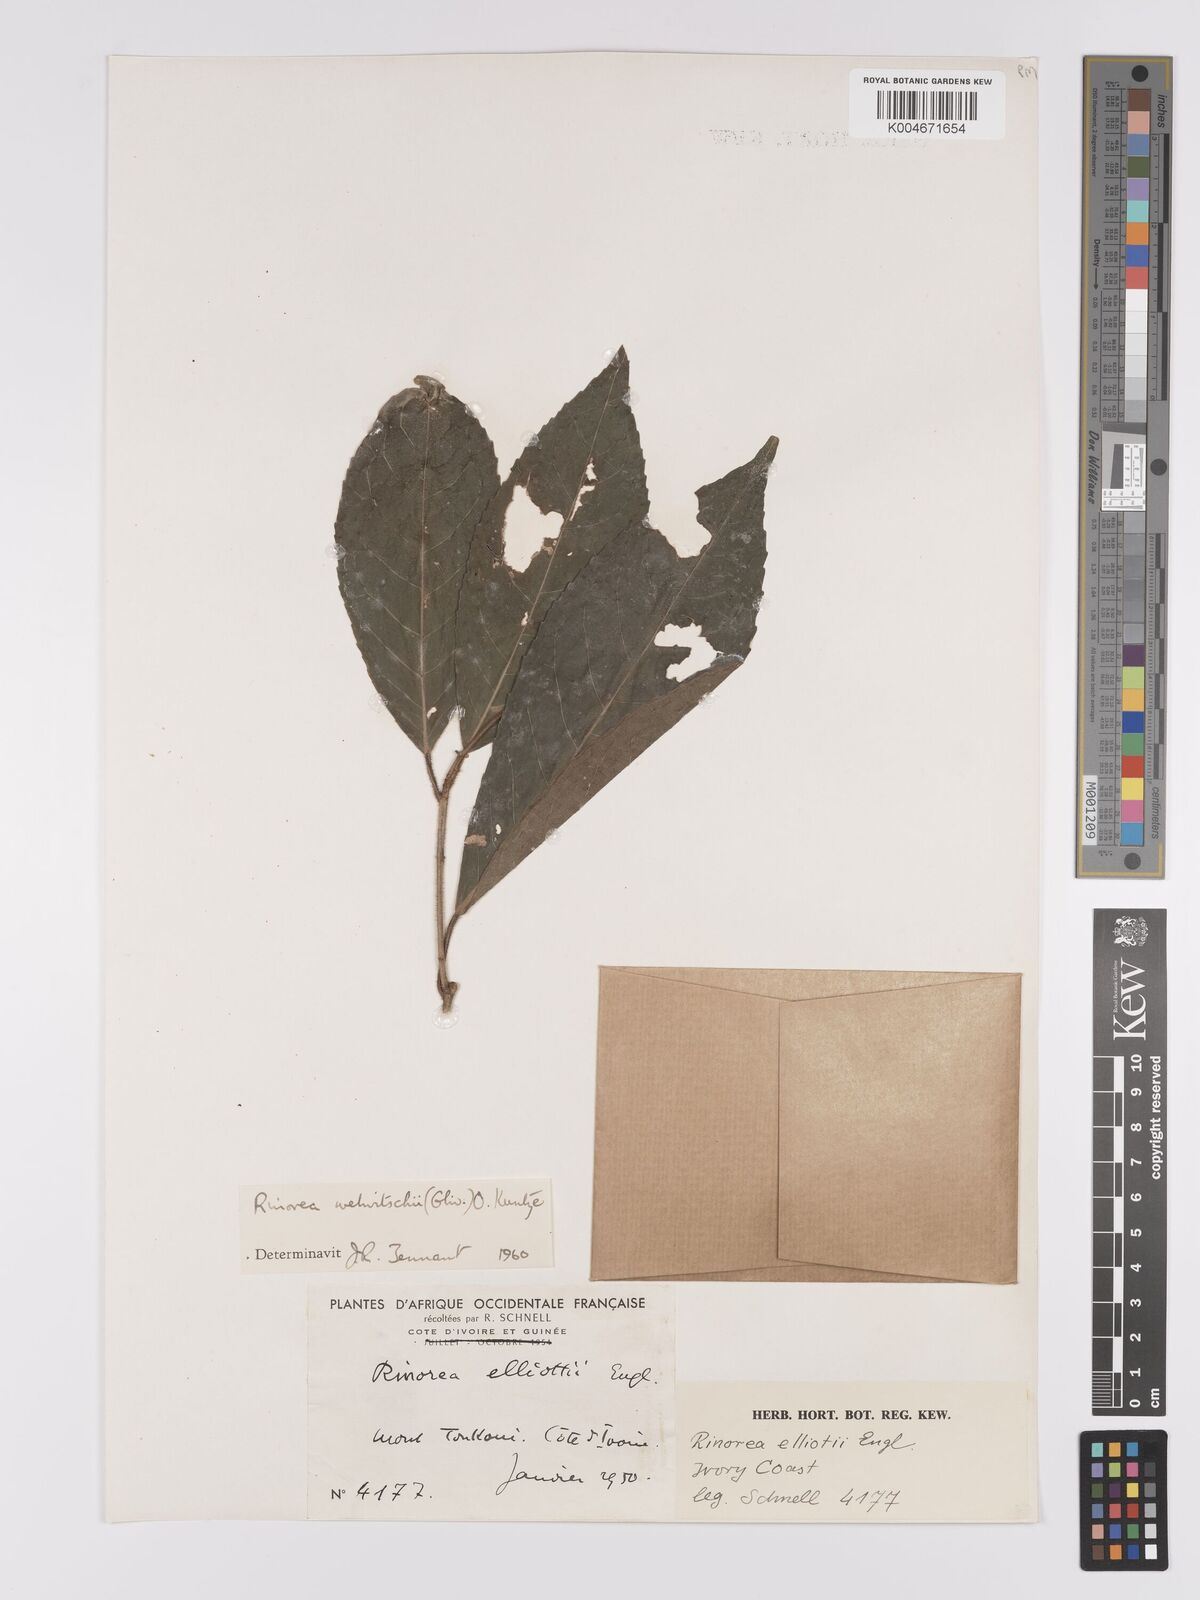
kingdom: Plantae
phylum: Tracheophyta
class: Magnoliopsida
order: Malpighiales
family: Violaceae
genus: Rinorea
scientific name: Rinorea welwitschii
